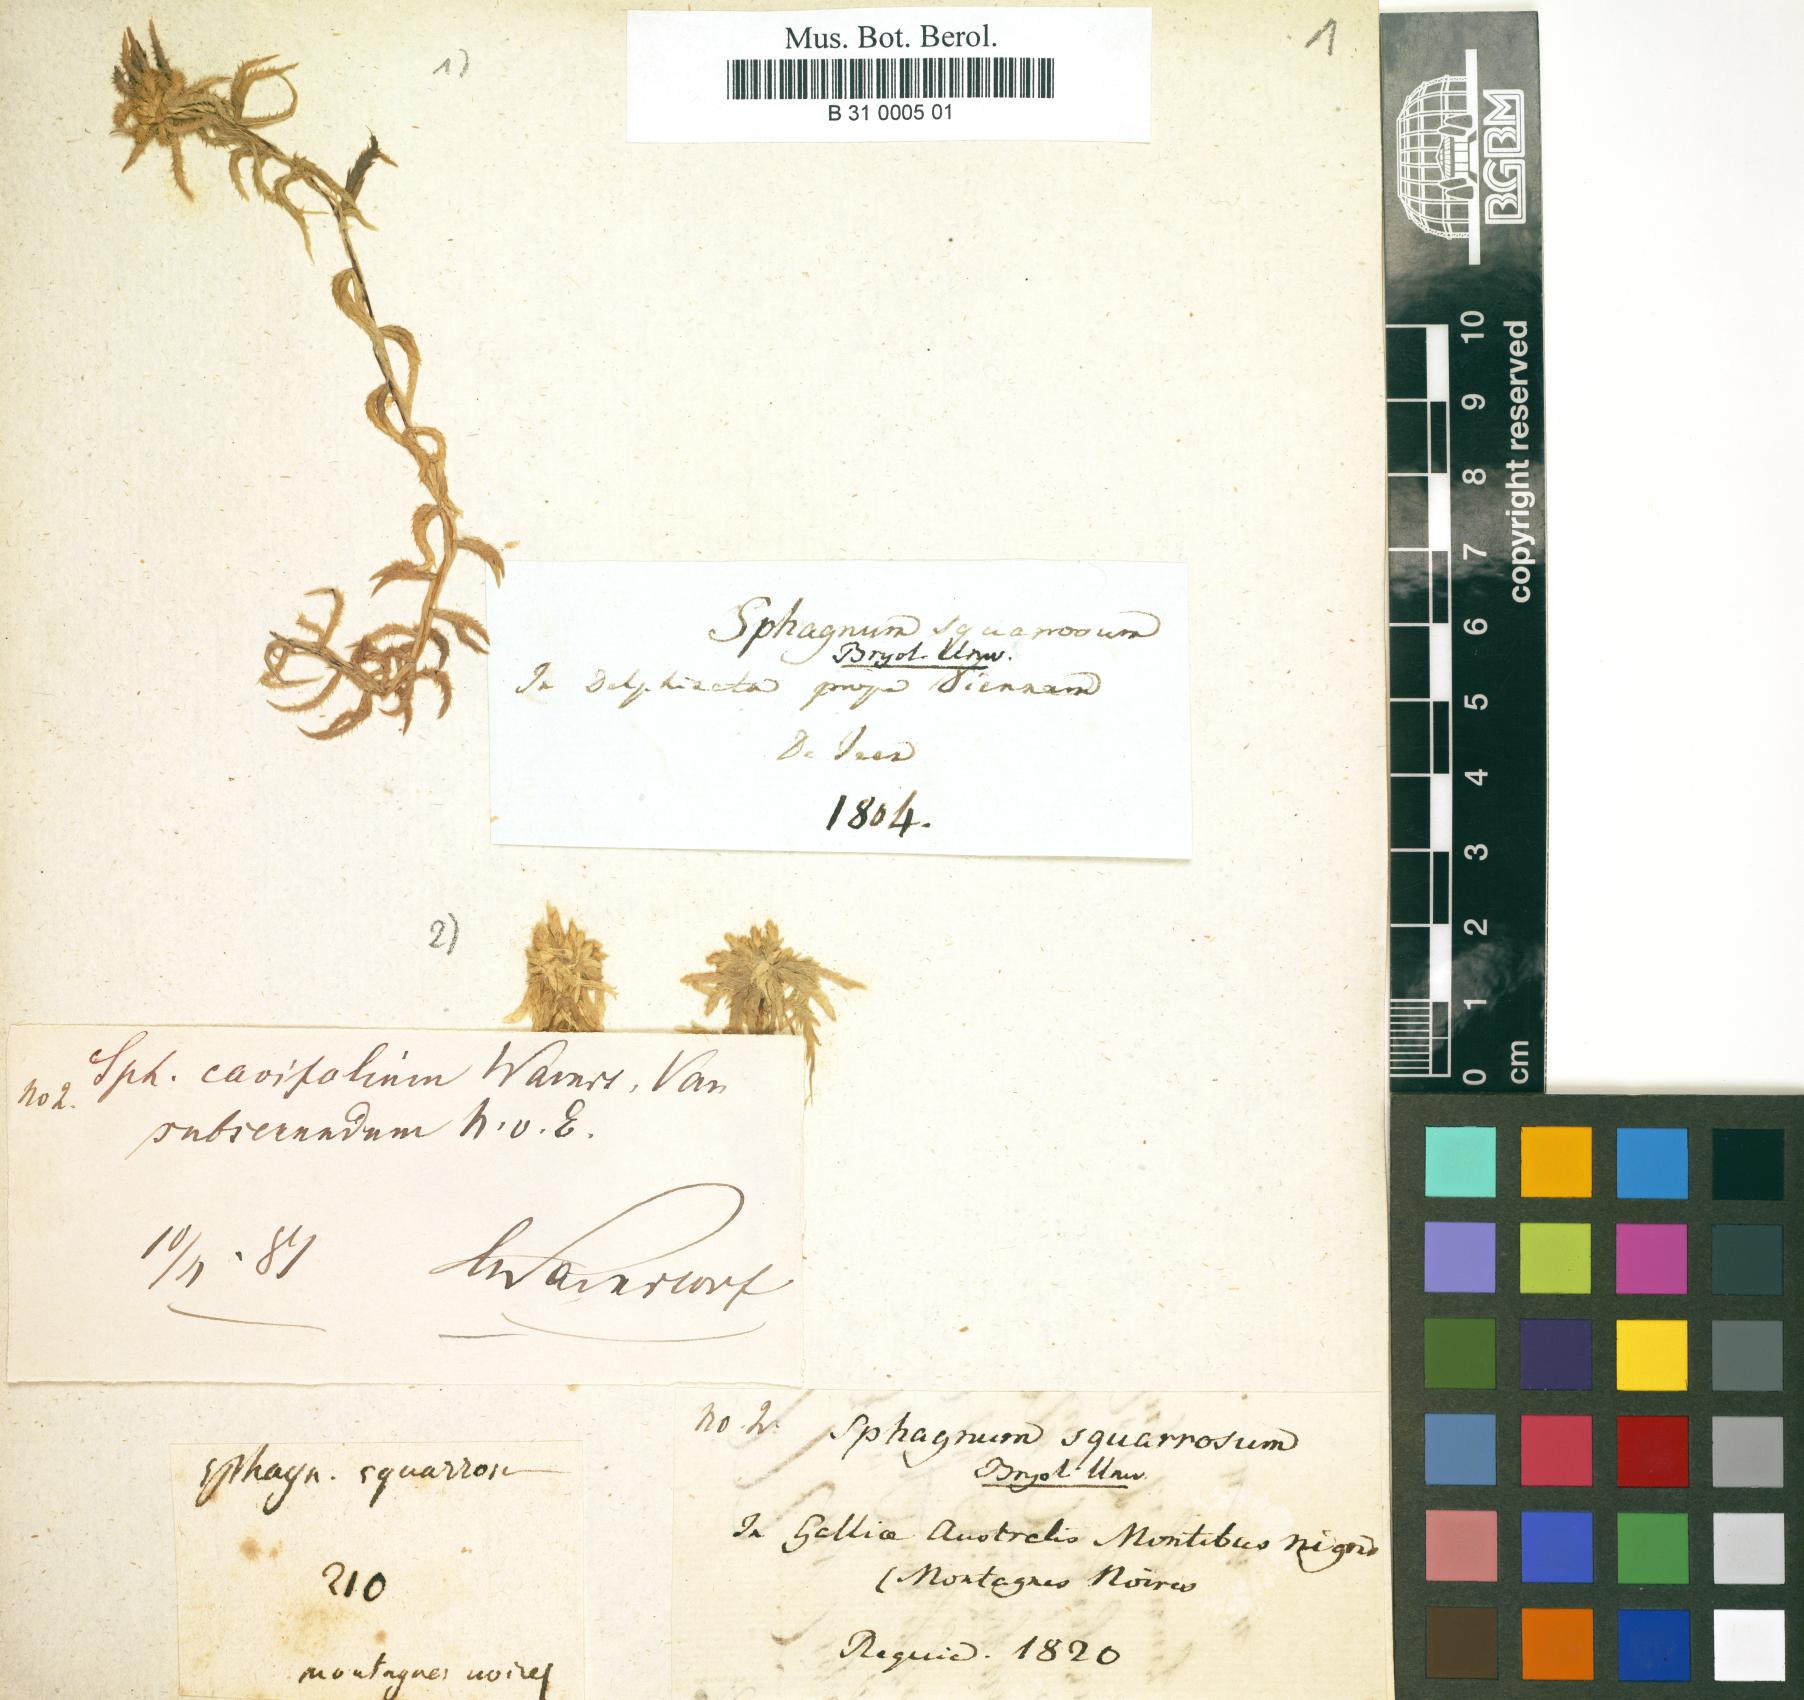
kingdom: Plantae
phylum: Bryophyta
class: Sphagnopsida
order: Sphagnales
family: Sphagnaceae
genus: Sphagnum
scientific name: Sphagnum squarrosum
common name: Shaggy peat moss
